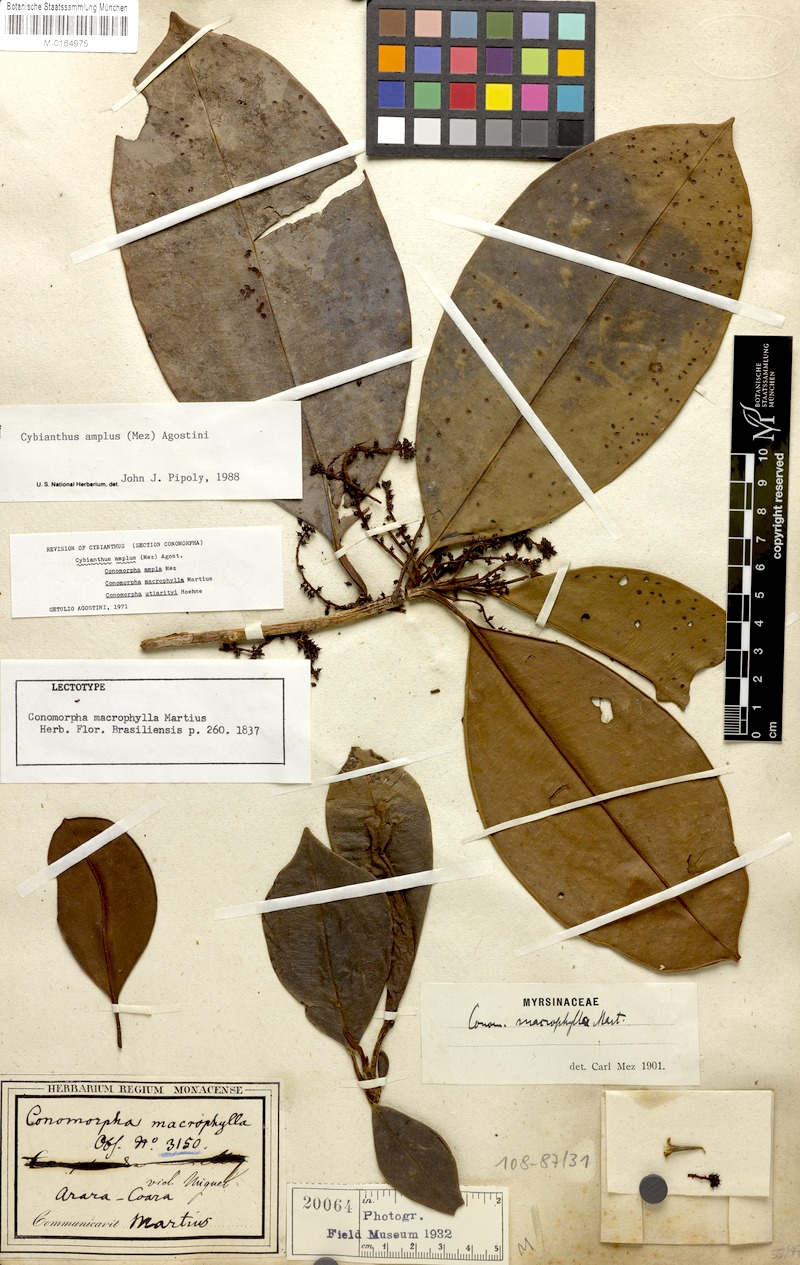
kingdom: Plantae
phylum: Tracheophyta
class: Magnoliopsida
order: Ericales
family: Primulaceae
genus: Cybianthus
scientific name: Cybianthus amplus
